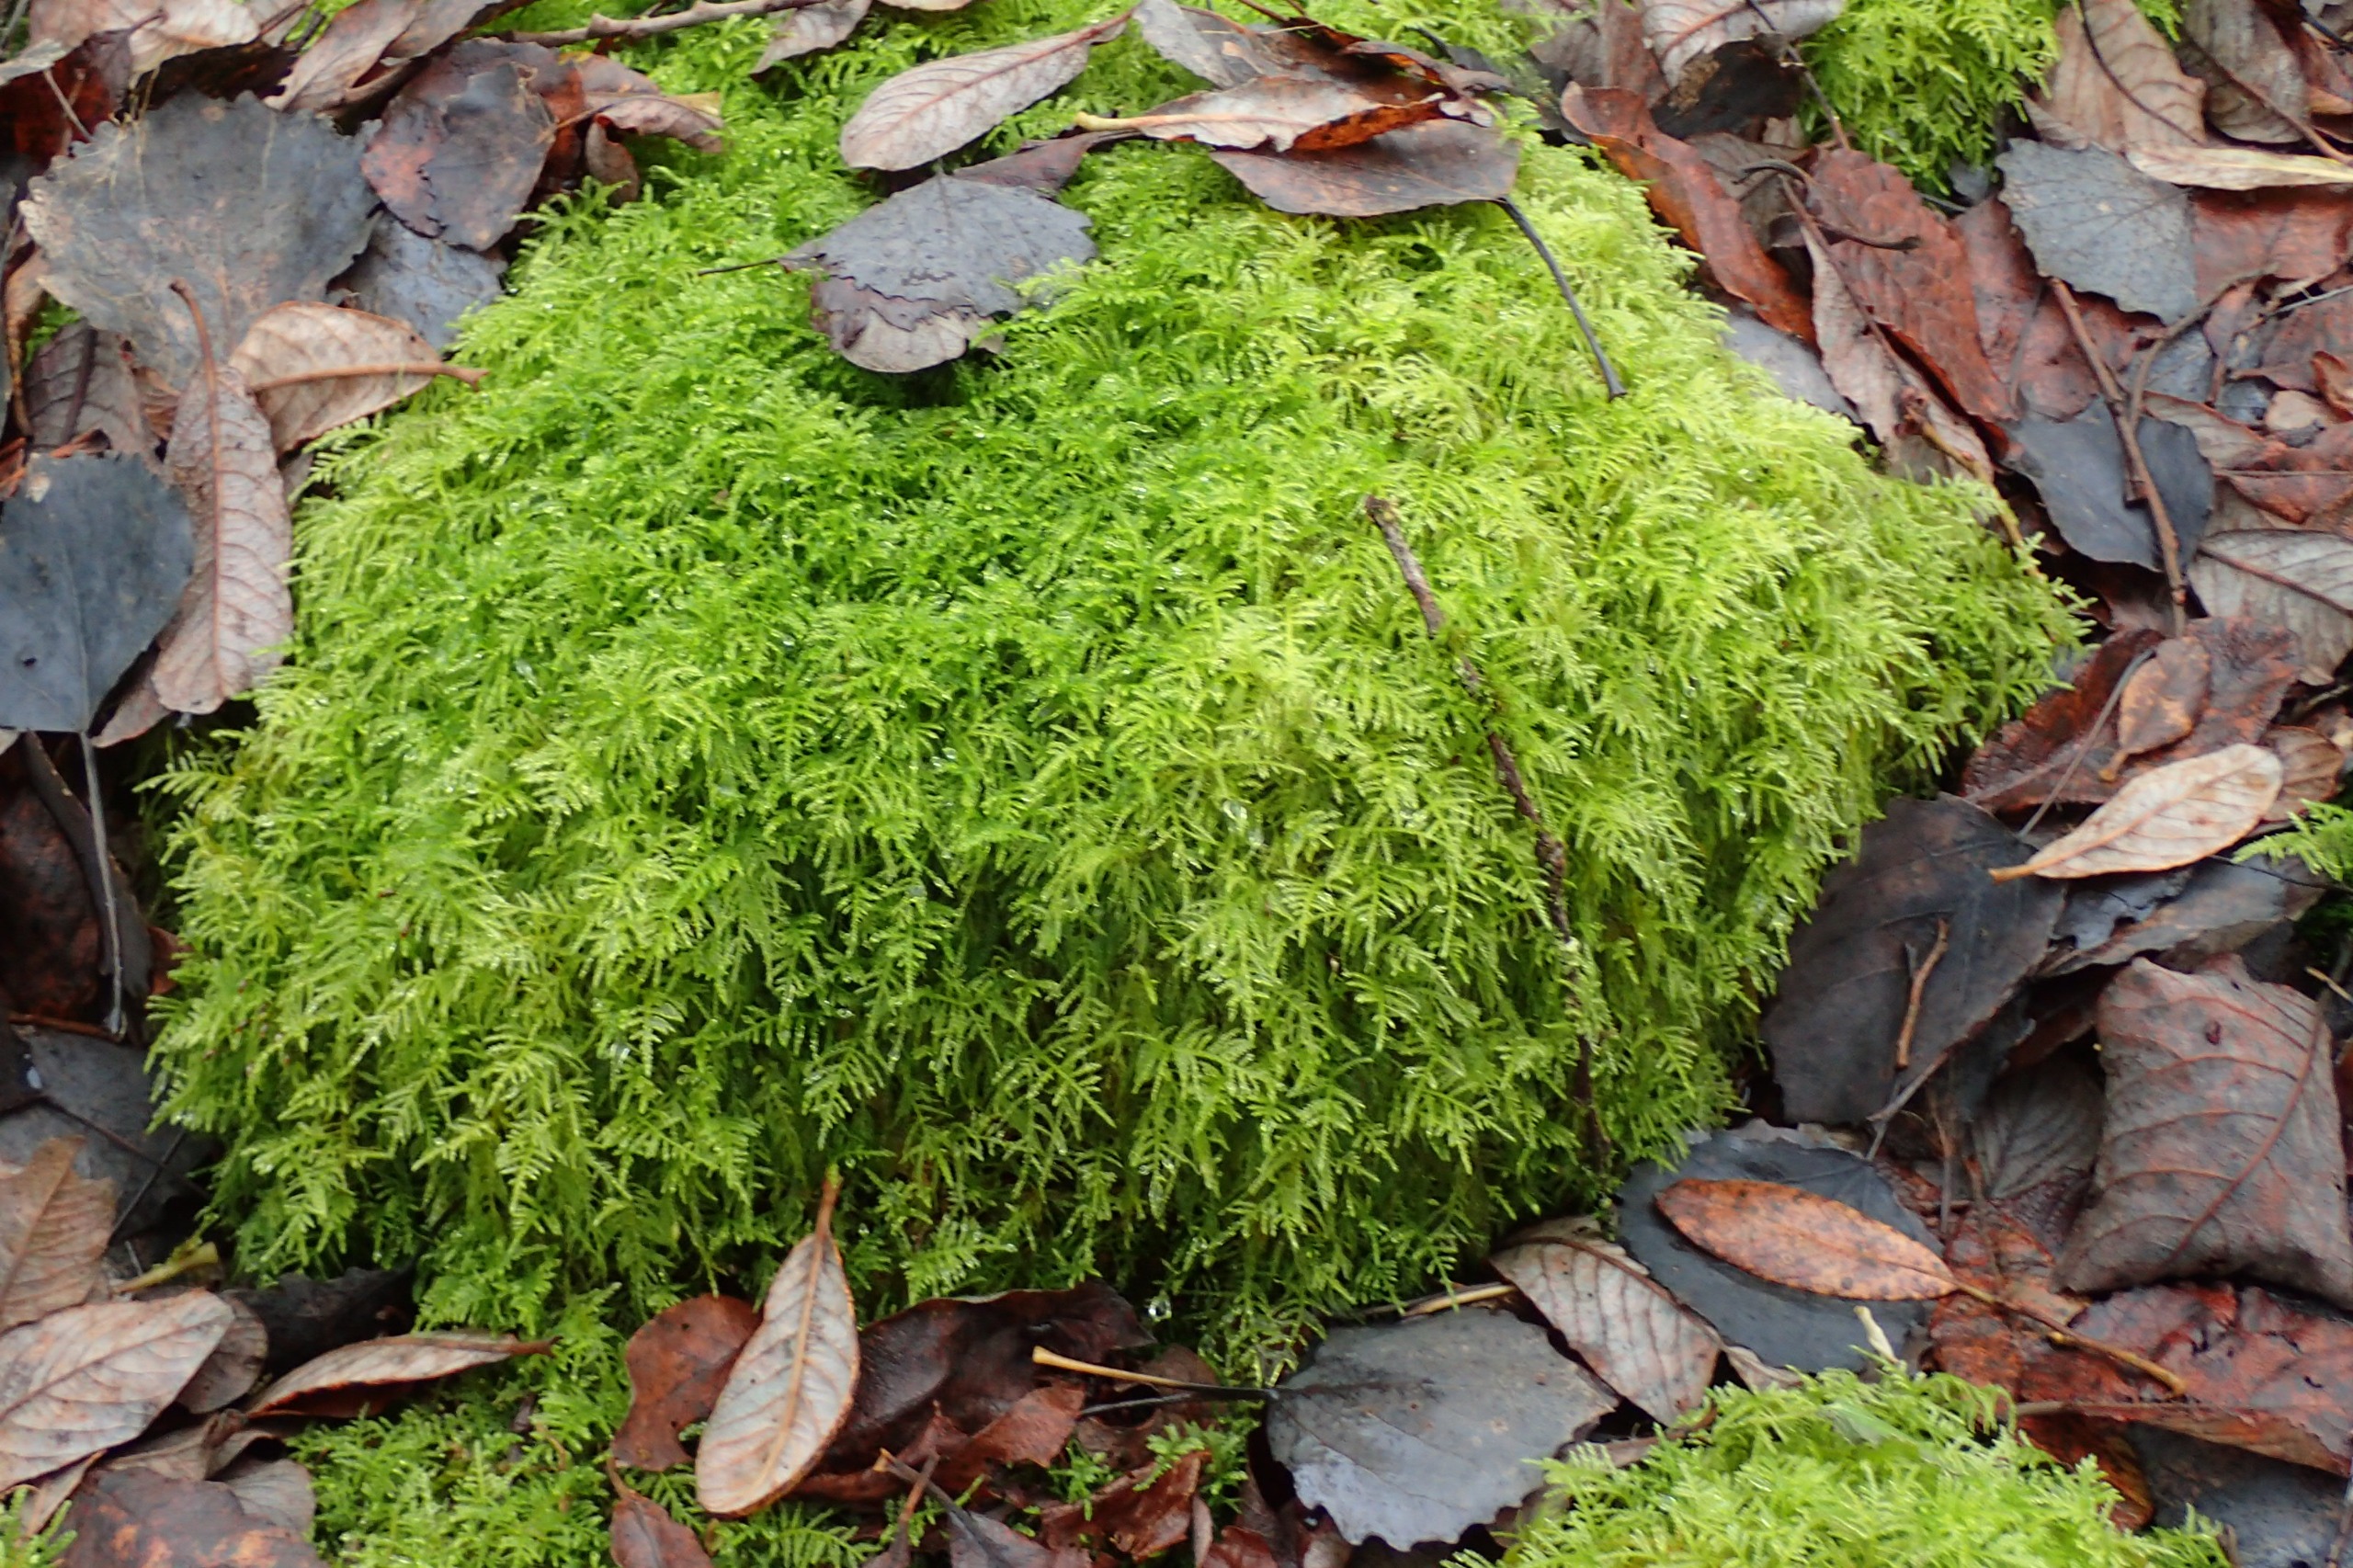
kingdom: Plantae
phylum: Bryophyta
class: Bryopsida
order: Hypnales
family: Brachytheciaceae
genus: Kindbergia
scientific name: Kindbergia praelonga
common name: Forskelligbladet vortetand
